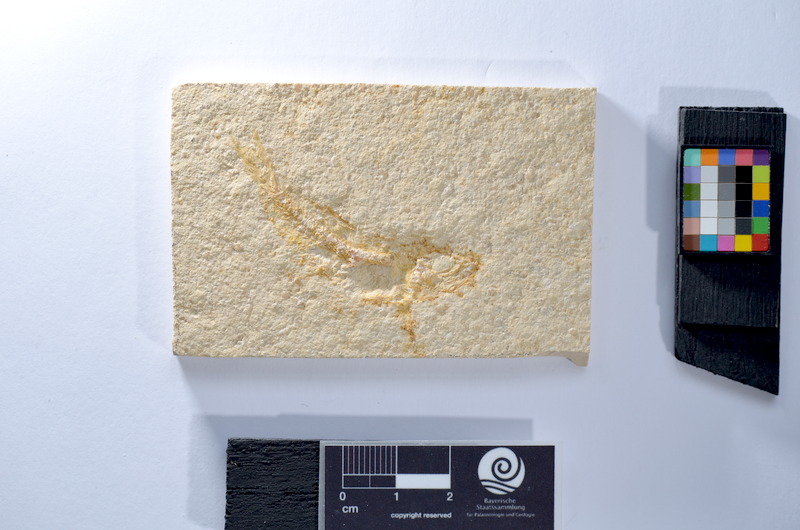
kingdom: Animalia
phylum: Chordata
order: Salmoniformes
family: Orthogonikleithridae
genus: Leptolepides
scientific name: Leptolepides
